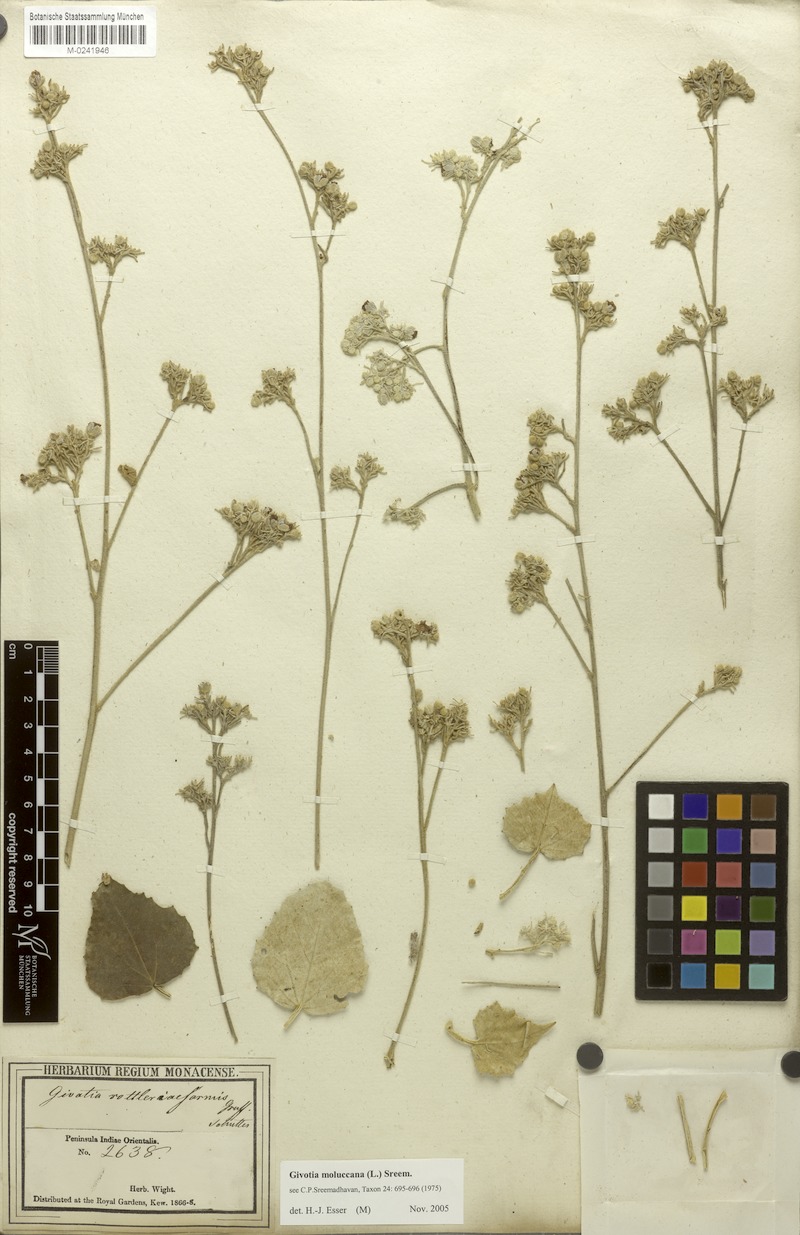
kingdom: Plantae
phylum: Tracheophyta
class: Magnoliopsida
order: Malpighiales
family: Euphorbiaceae
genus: Givotia
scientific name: Givotia moluccana
